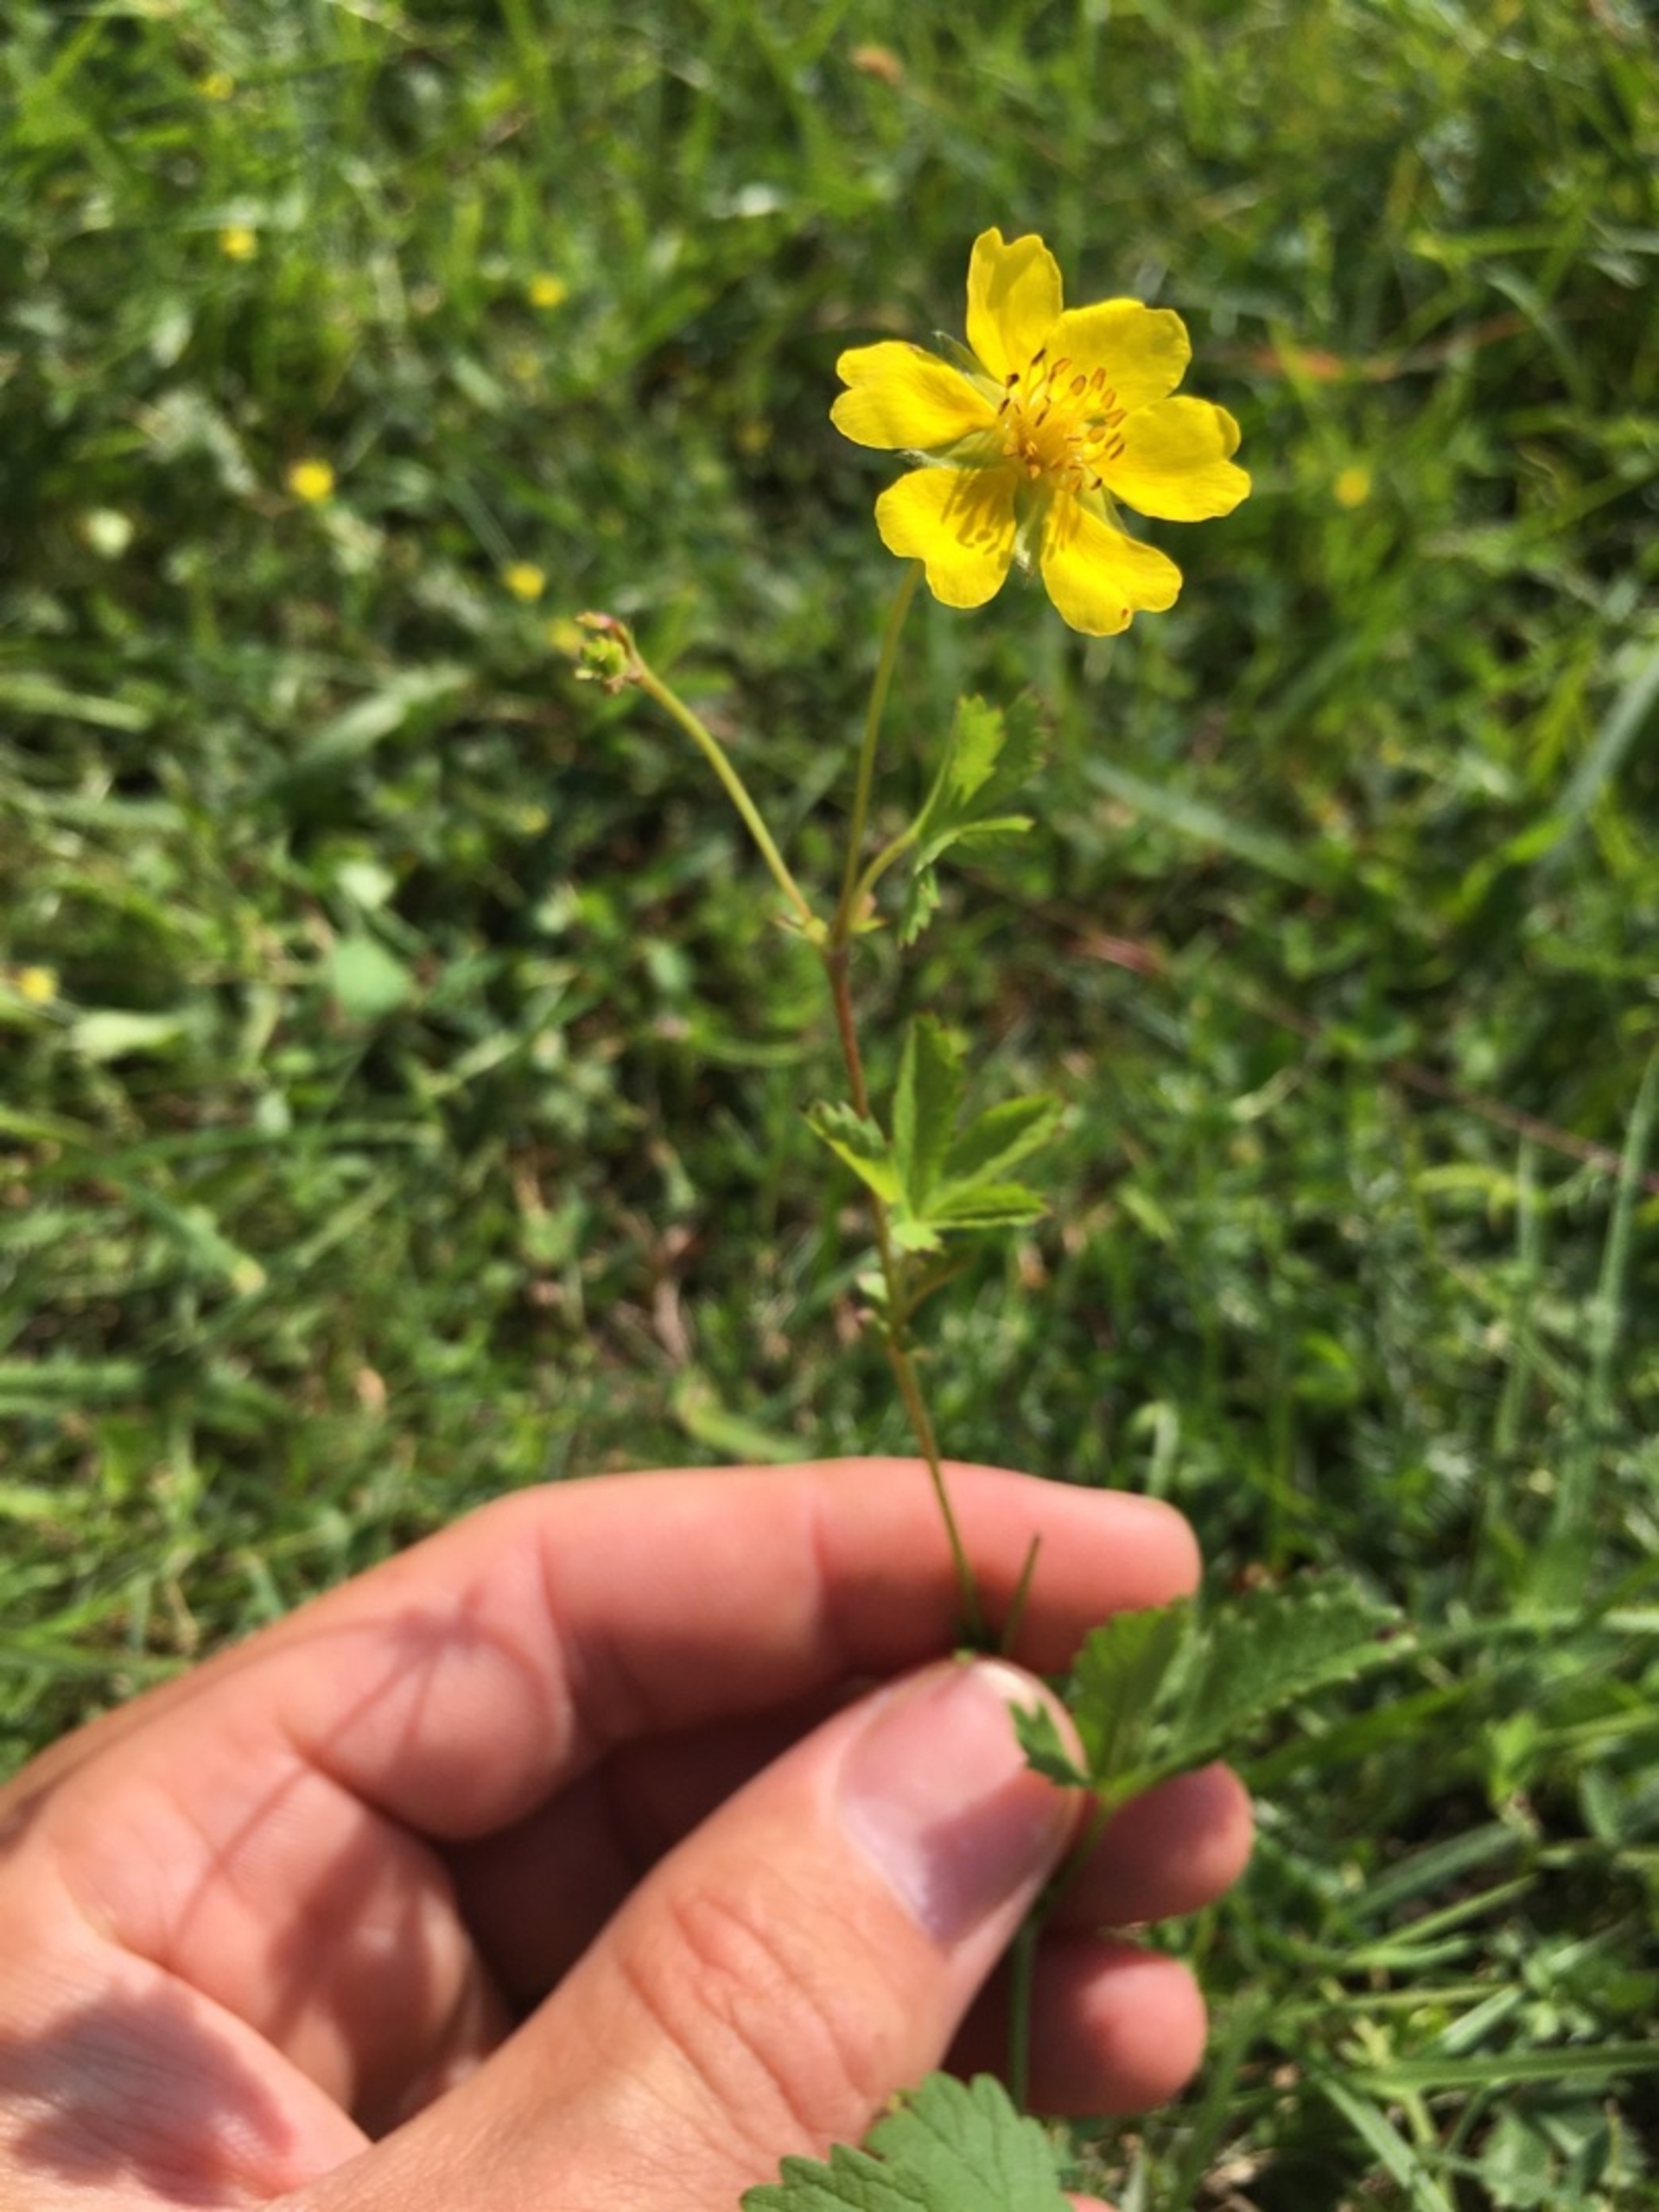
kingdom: Plantae
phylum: Tracheophyta
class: Magnoliopsida
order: Rosales
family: Rosaceae
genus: Potentilla
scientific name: Potentilla reptans
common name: Krybende potentil
